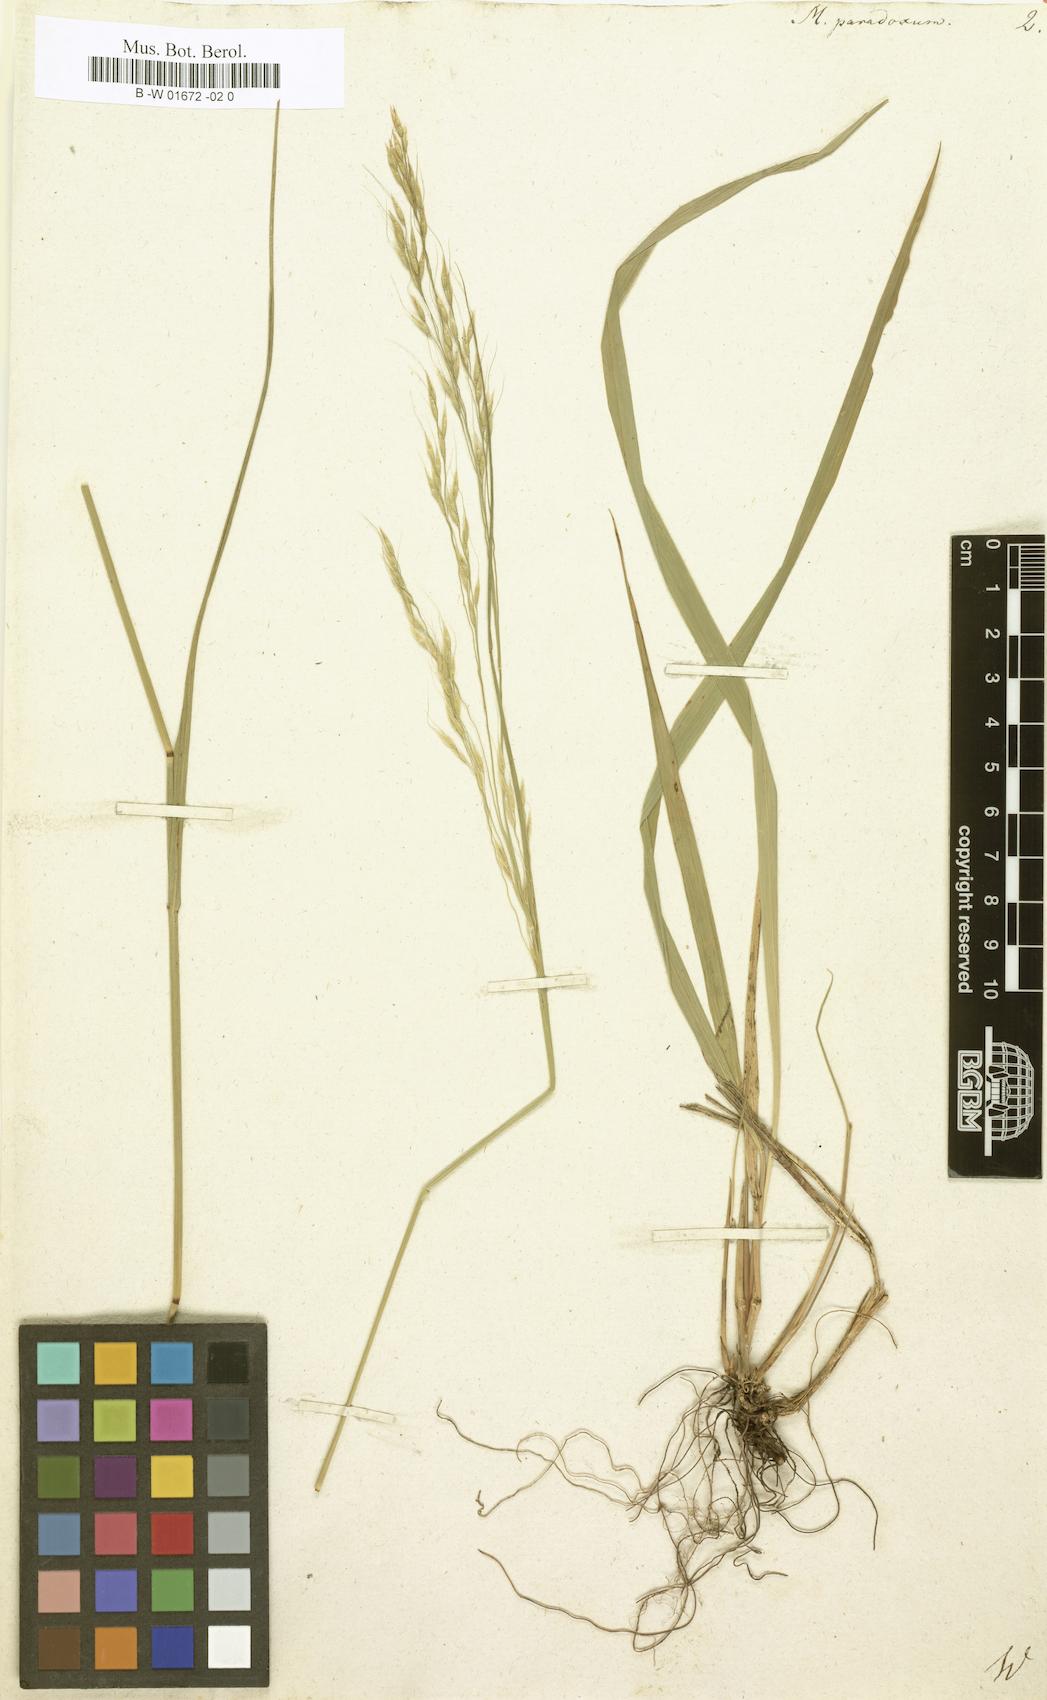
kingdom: Plantae
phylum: Tracheophyta
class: Liliopsida
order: Poales
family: Poaceae
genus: Achnatherum
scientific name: Achnatherum paradoxum
